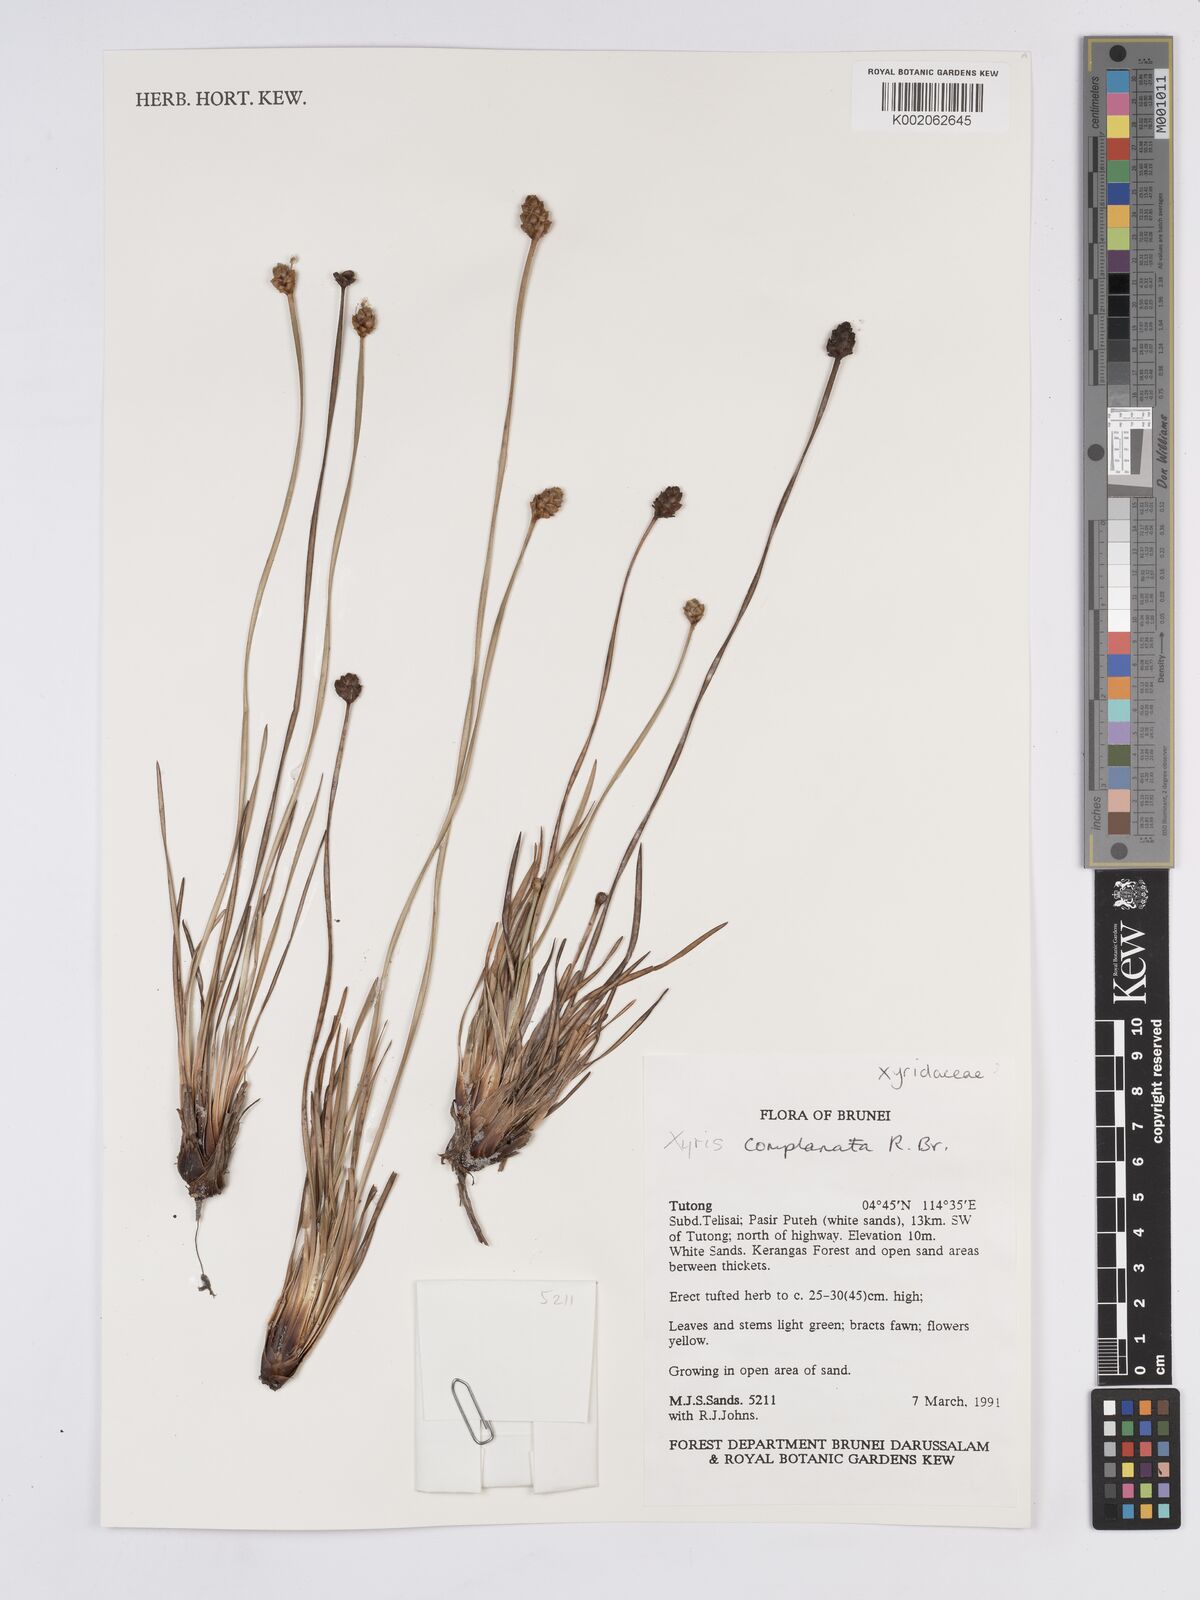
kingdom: Plantae
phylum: Tracheophyta
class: Liliopsida
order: Poales
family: Xyridaceae
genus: Xyris
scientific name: Xyris complanata
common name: Hawai'i yelloweyed grass
